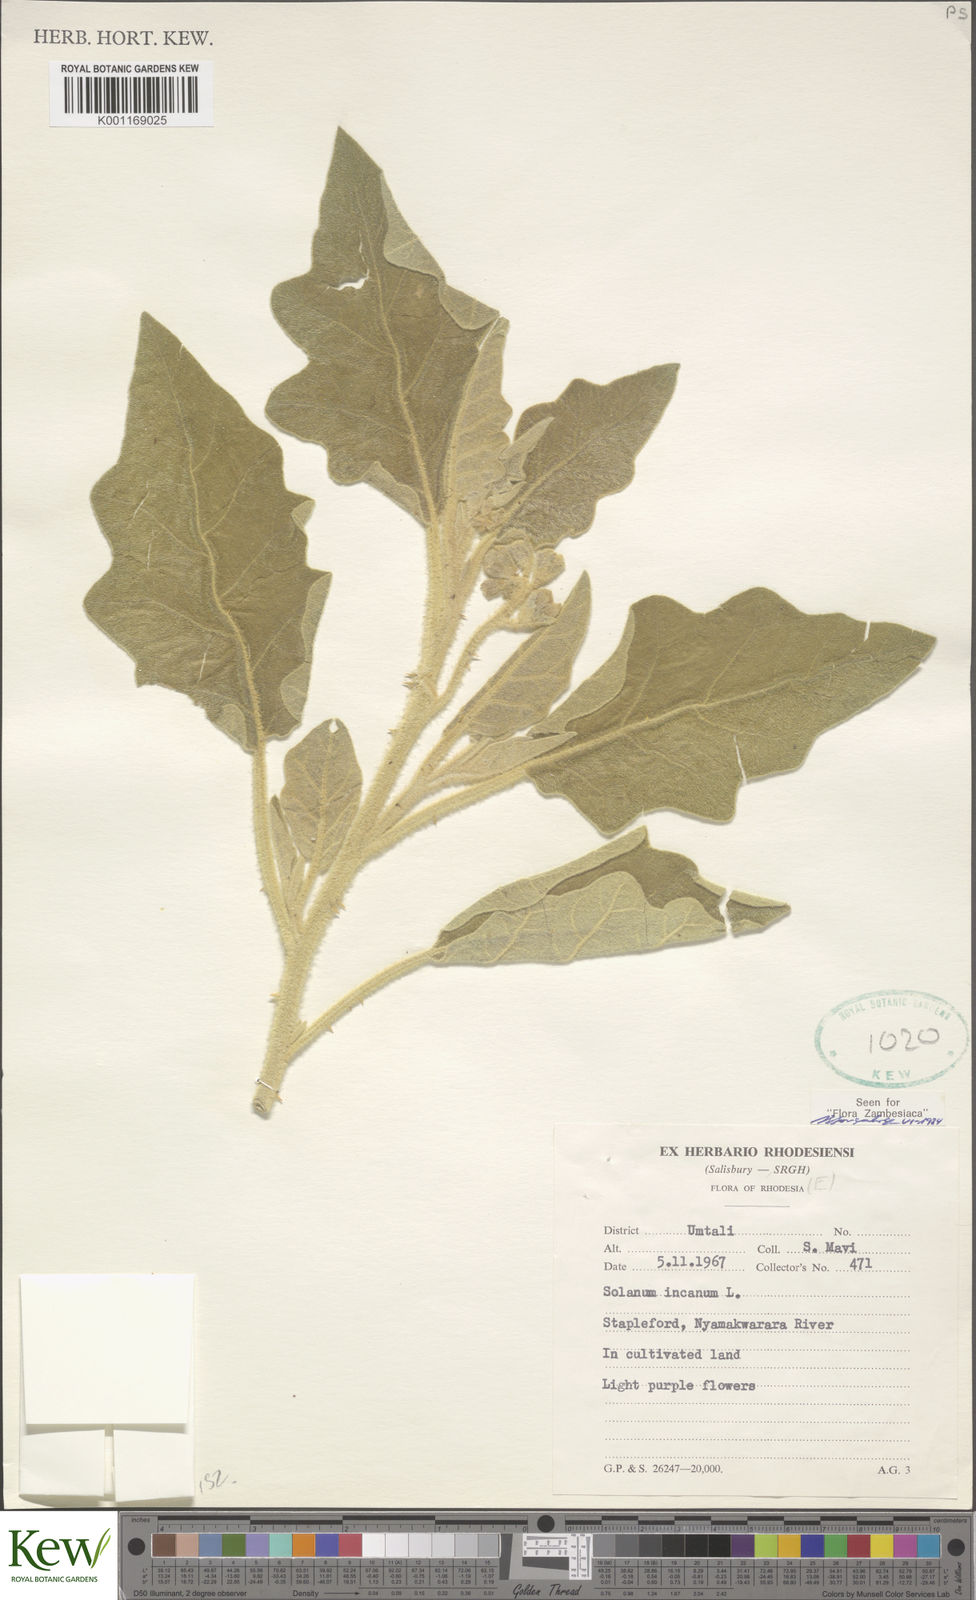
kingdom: Plantae
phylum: Tracheophyta
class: Magnoliopsida
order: Solanales
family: Solanaceae
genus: Solanum
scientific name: Solanum incanum
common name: Bitter apple
